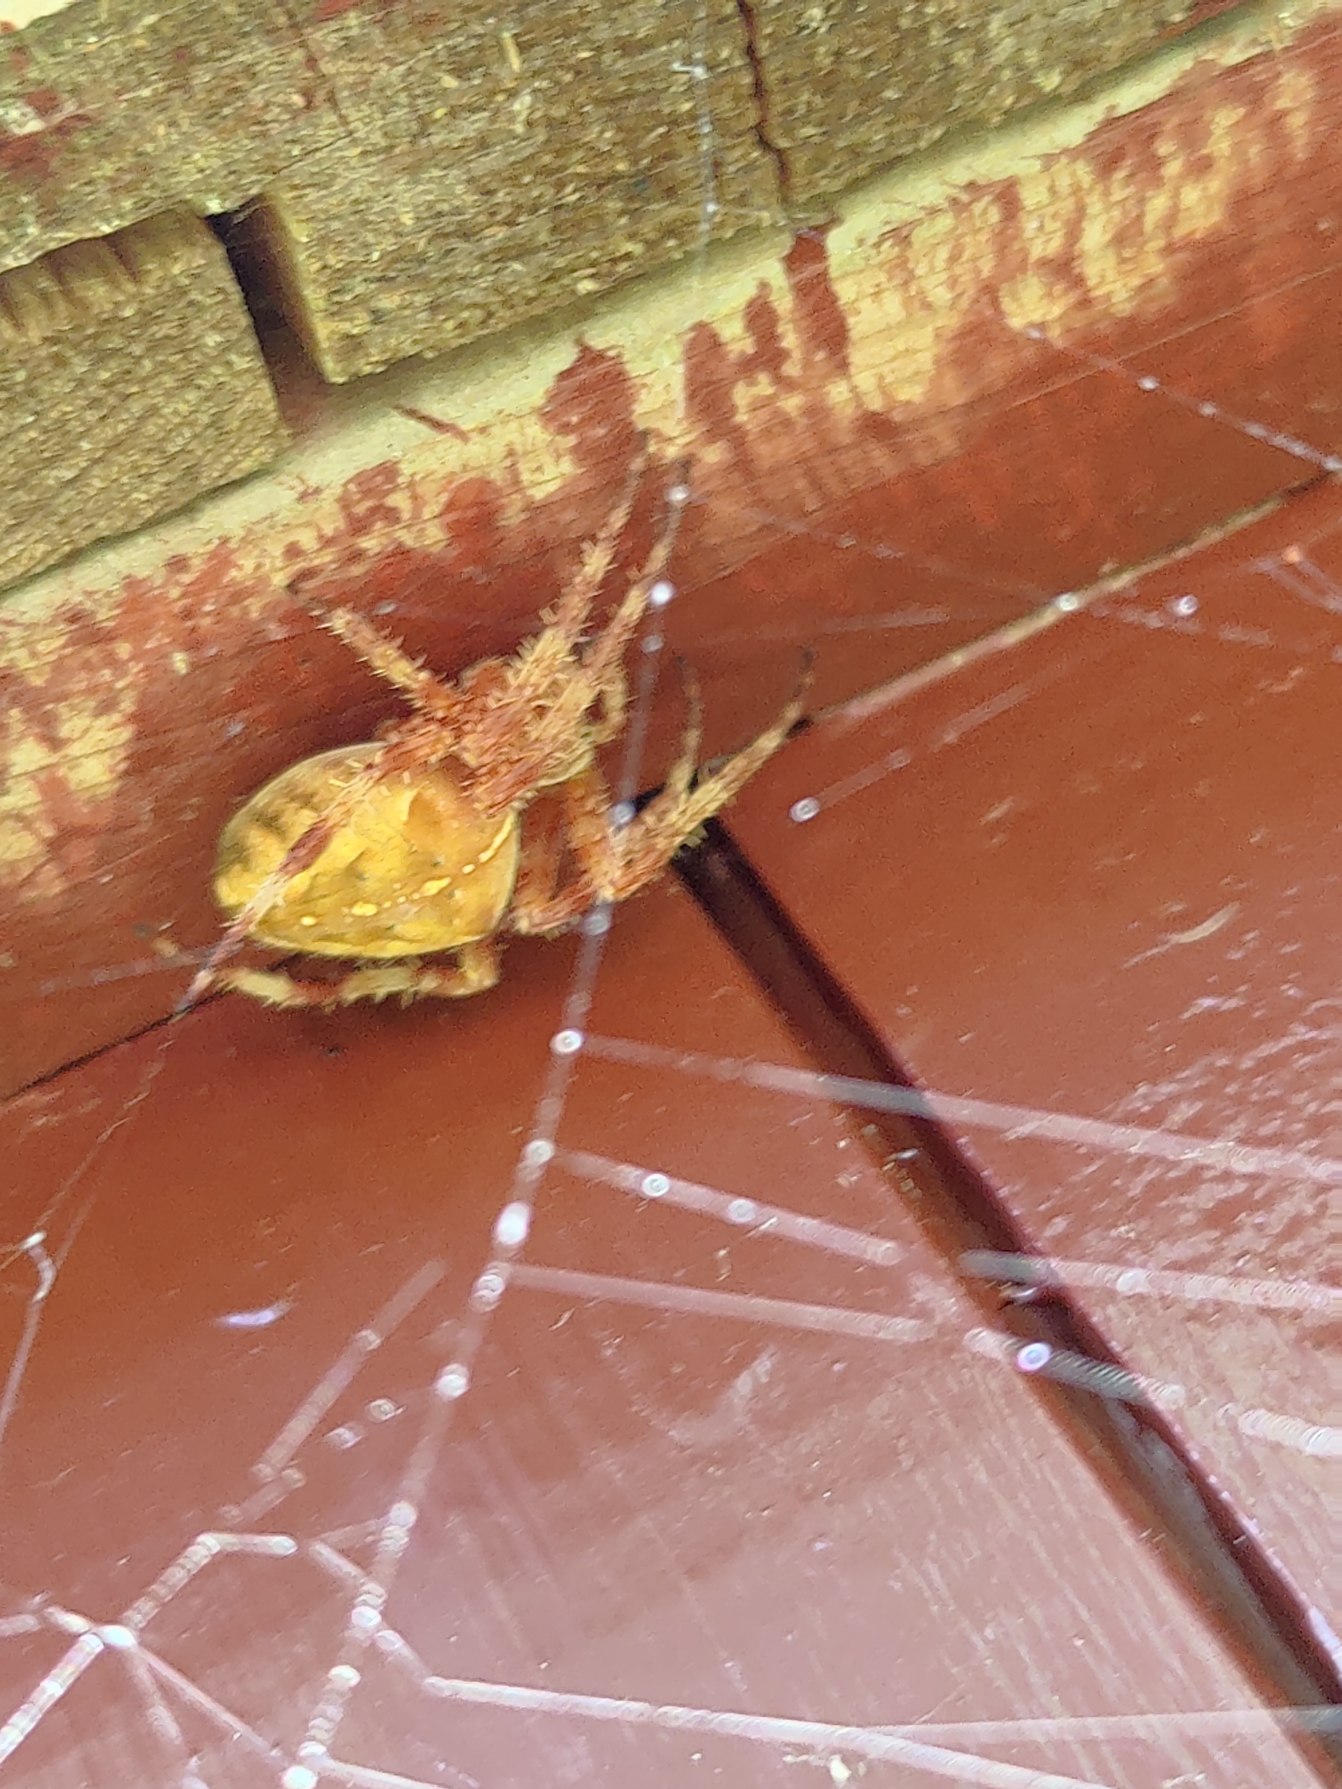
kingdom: Animalia
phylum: Arthropoda
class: Arachnida
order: Araneae
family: Araneidae
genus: Araneus
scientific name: Araneus diadematus
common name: Korsedderkop
